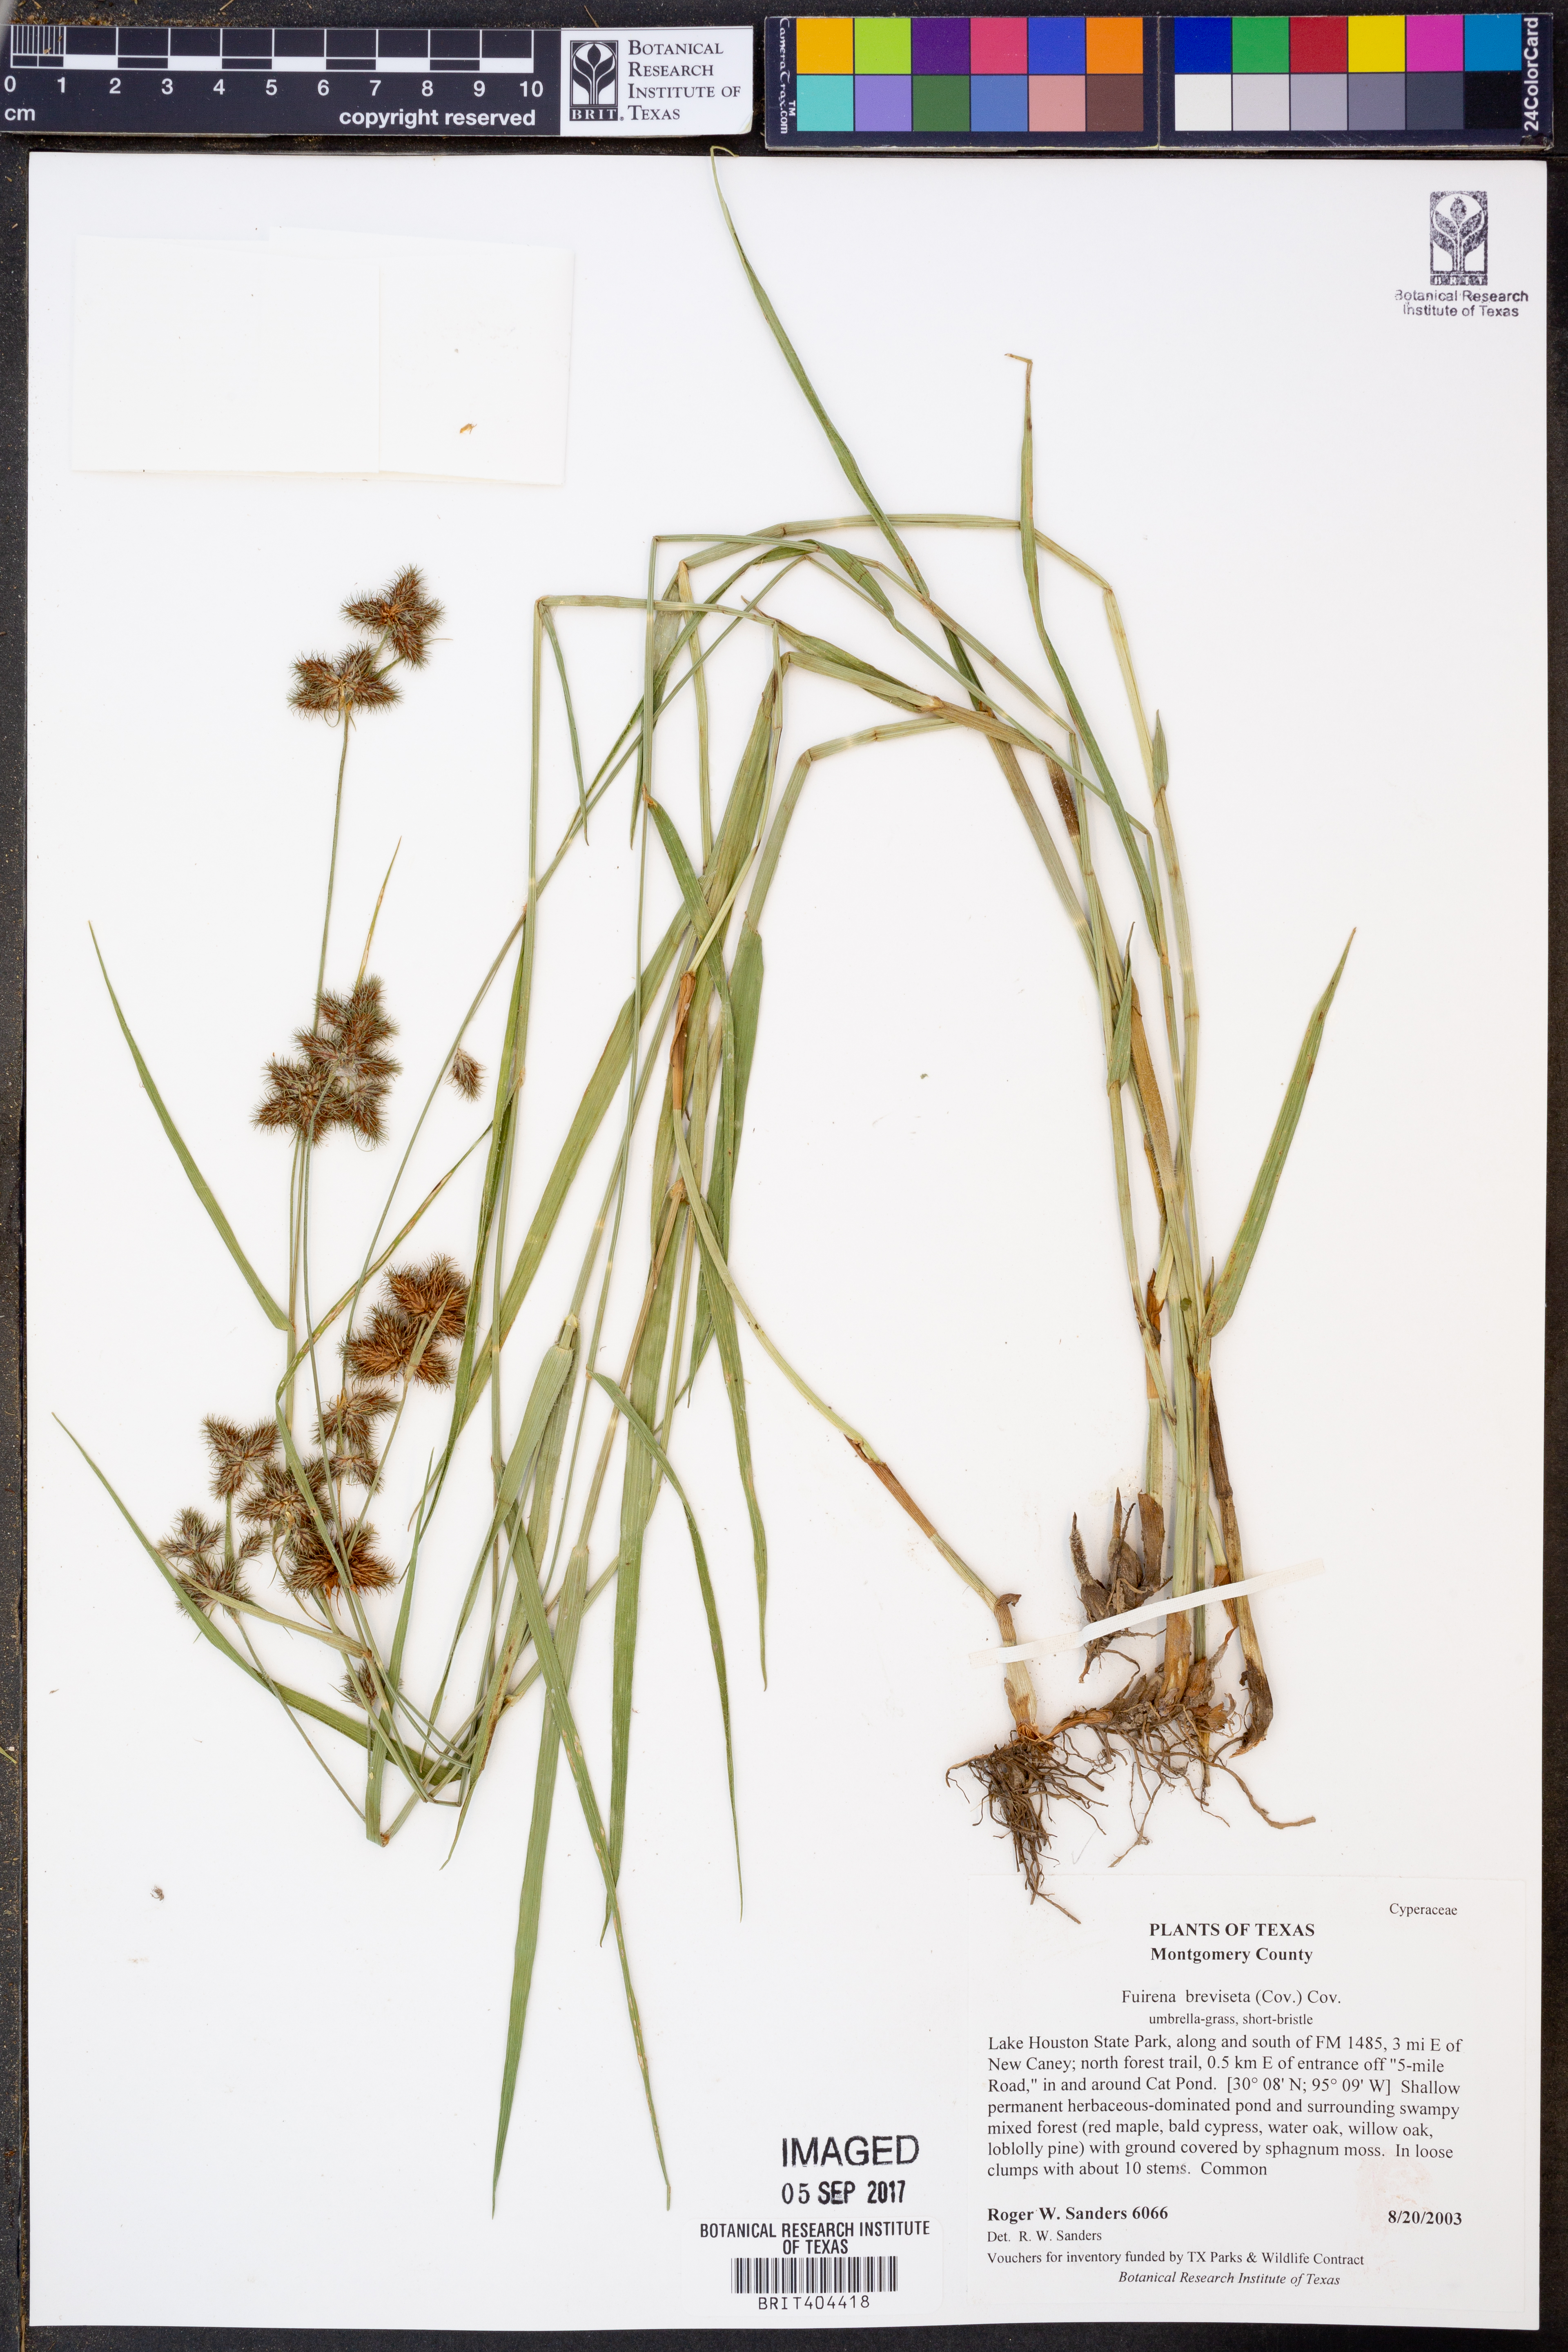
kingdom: Plantae
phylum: Tracheophyta
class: Liliopsida
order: Poales
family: Cyperaceae
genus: Fuirena
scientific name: Fuirena breviseta
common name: Saltmarsh umbrella sedge
